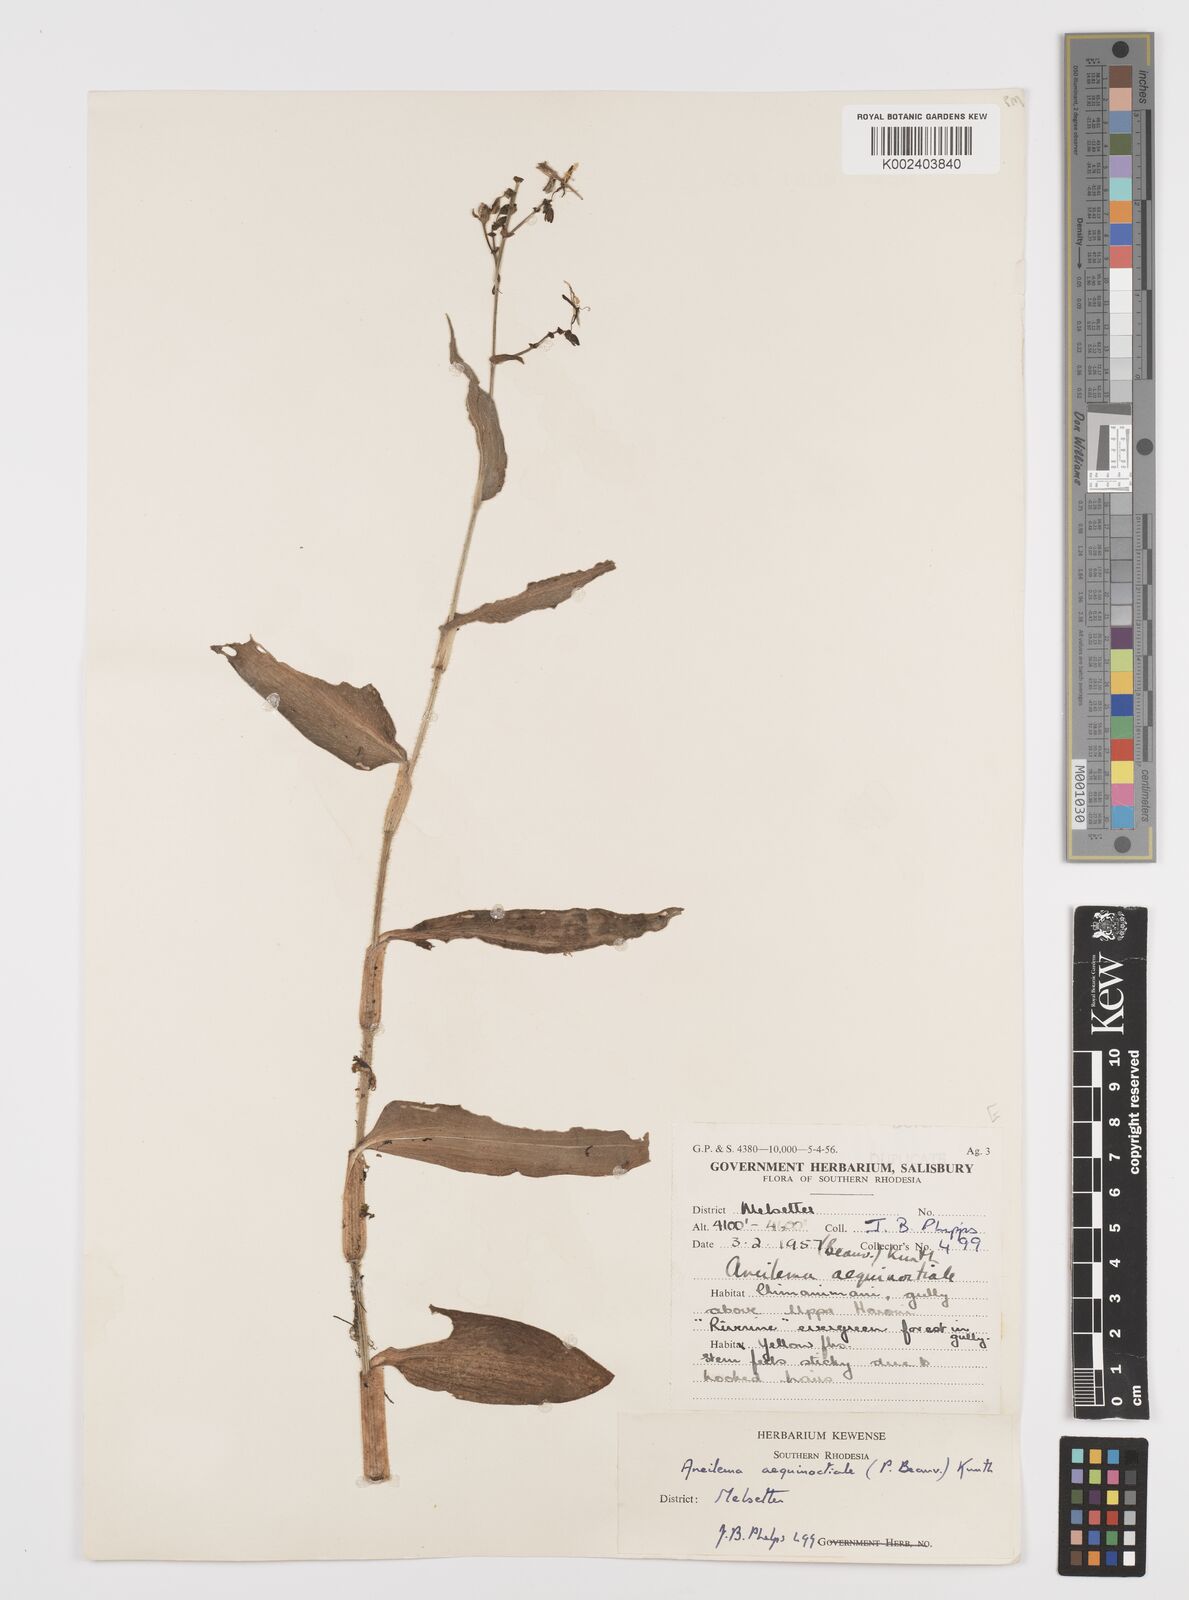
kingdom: Plantae
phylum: Tracheophyta
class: Liliopsida
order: Commelinales
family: Commelinaceae
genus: Aneilema
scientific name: Aneilema aequinoctiale
